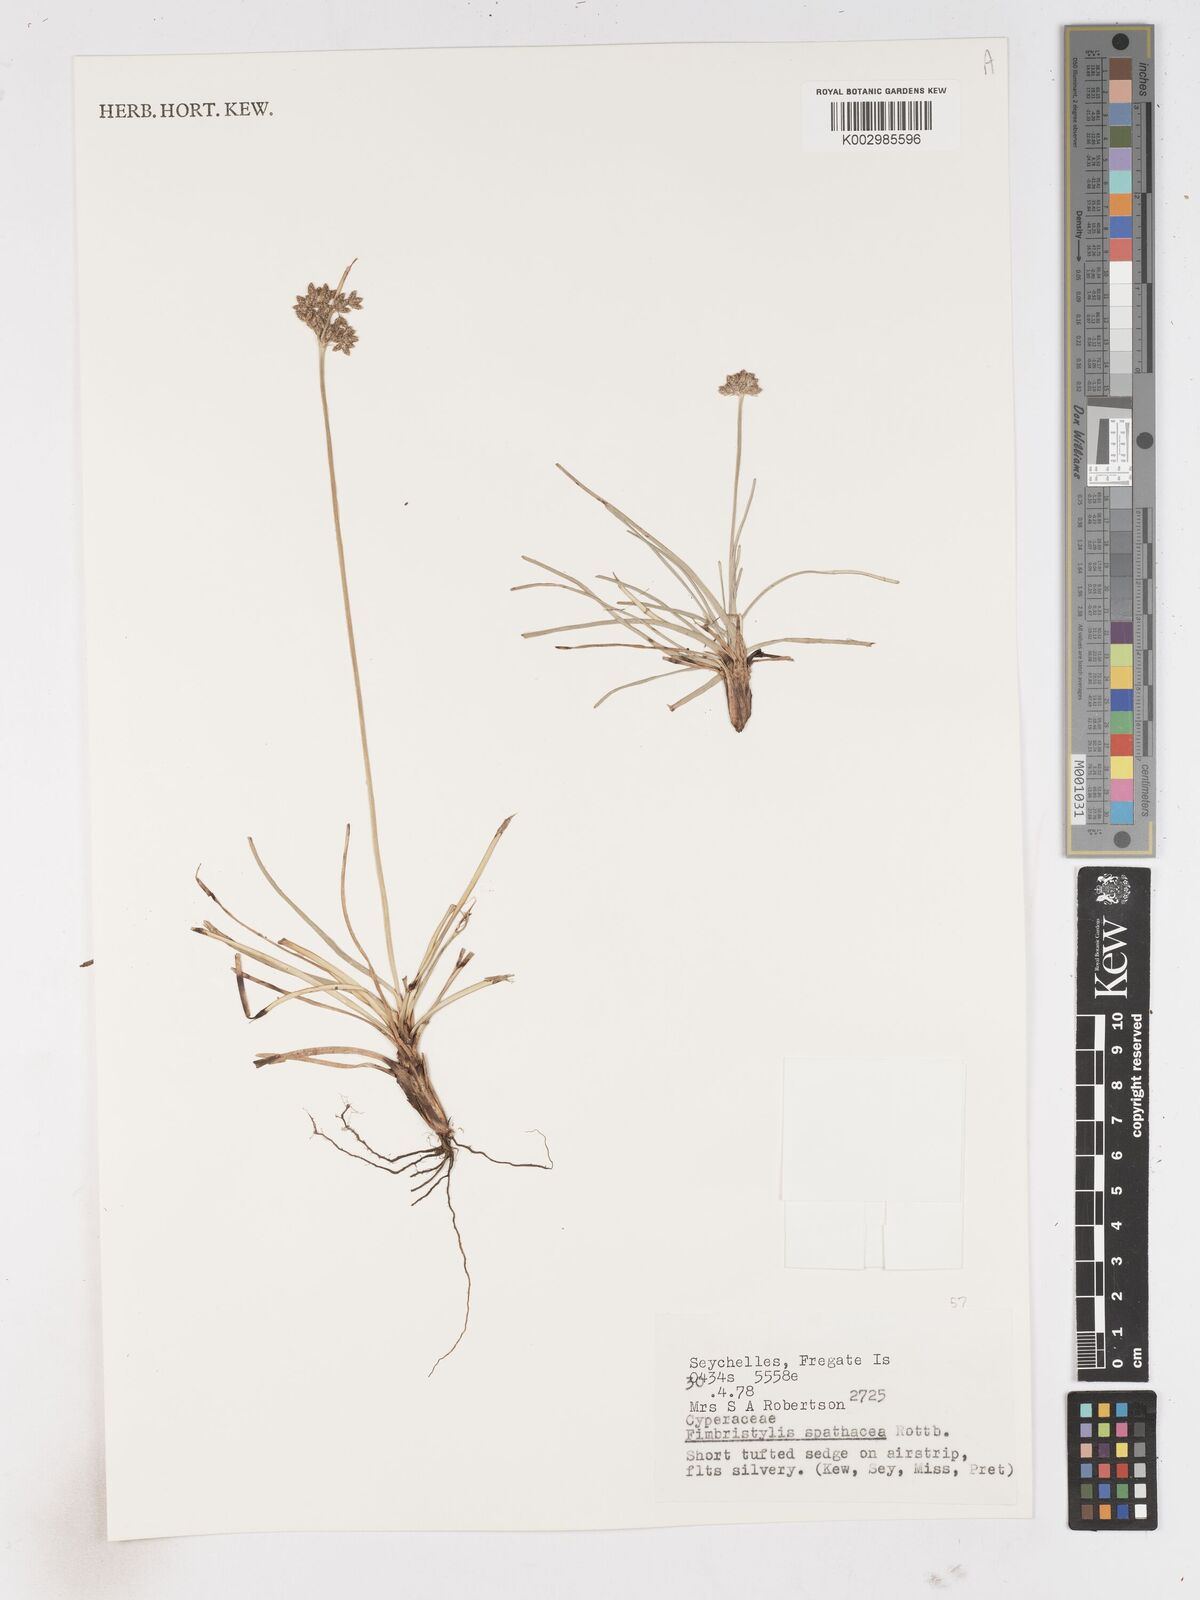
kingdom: Plantae
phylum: Tracheophyta
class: Liliopsida
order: Poales
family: Cyperaceae
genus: Fimbristylis
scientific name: Fimbristylis cymosa
